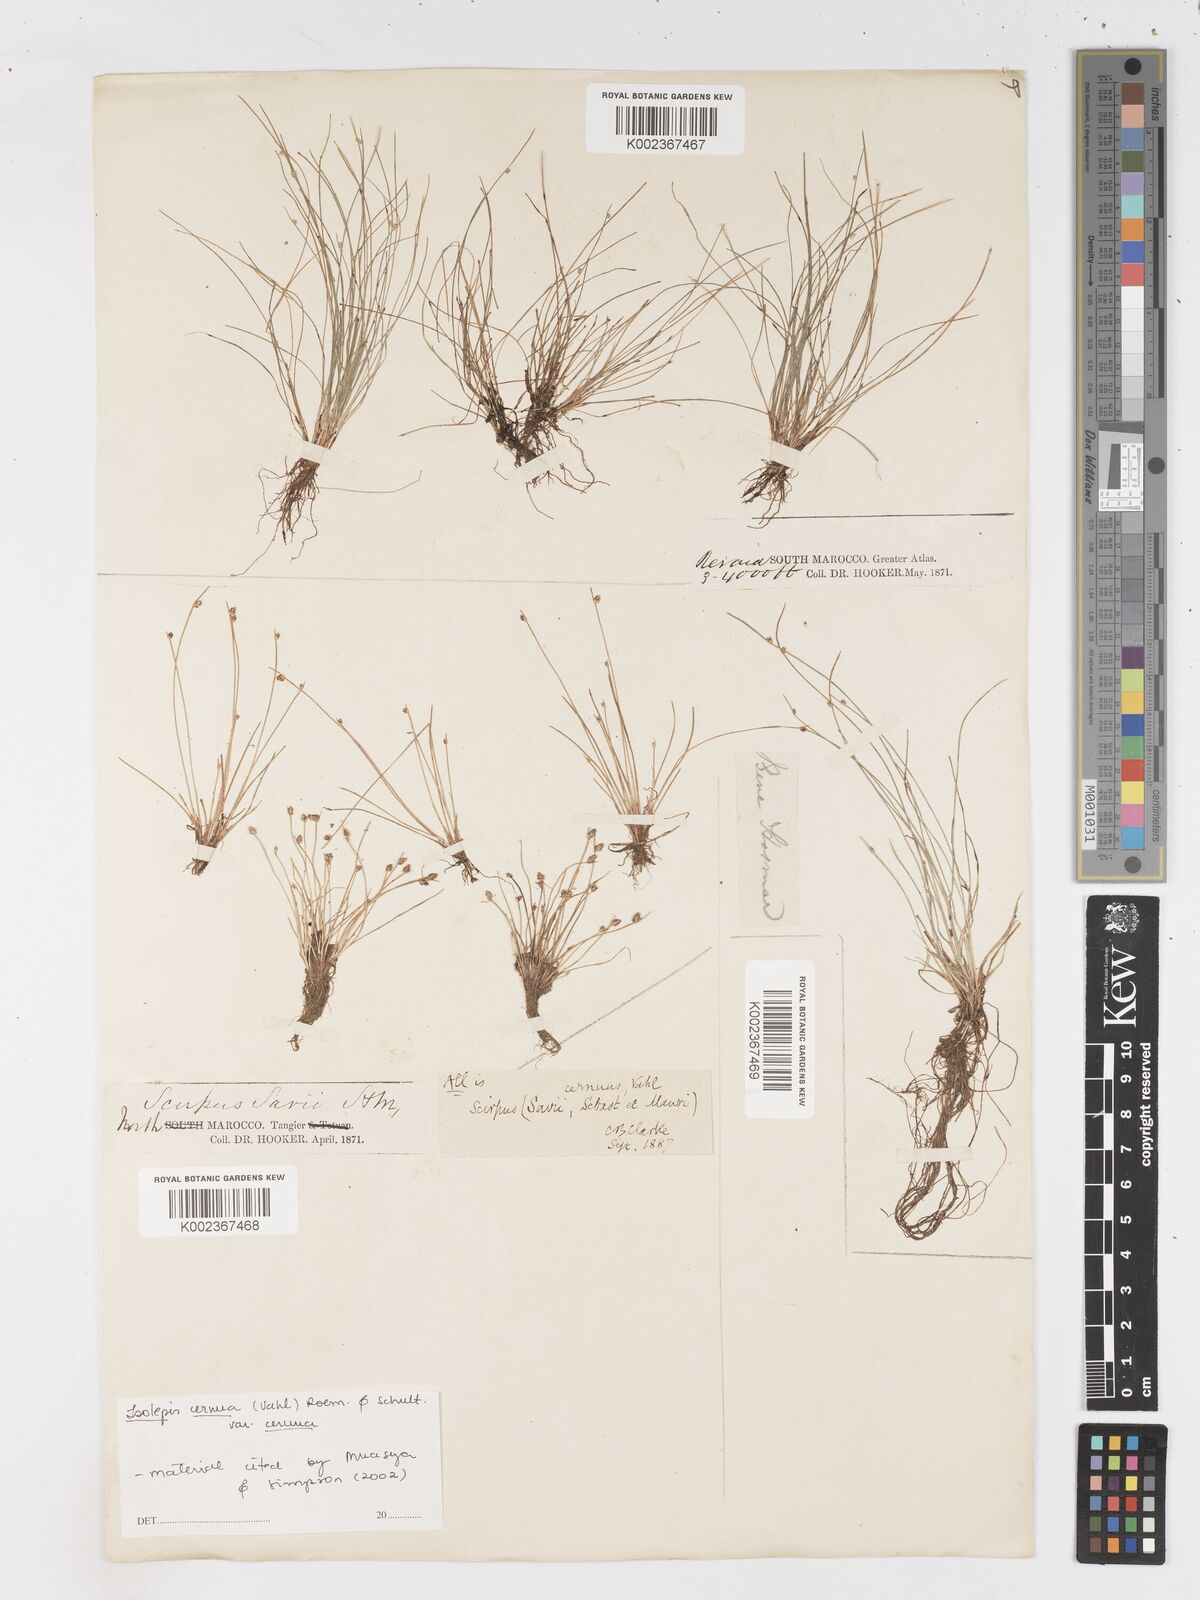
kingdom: Plantae
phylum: Tracheophyta
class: Liliopsida
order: Poales
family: Cyperaceae
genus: Isolepis
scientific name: Isolepis cernua
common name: Slender club-rush
